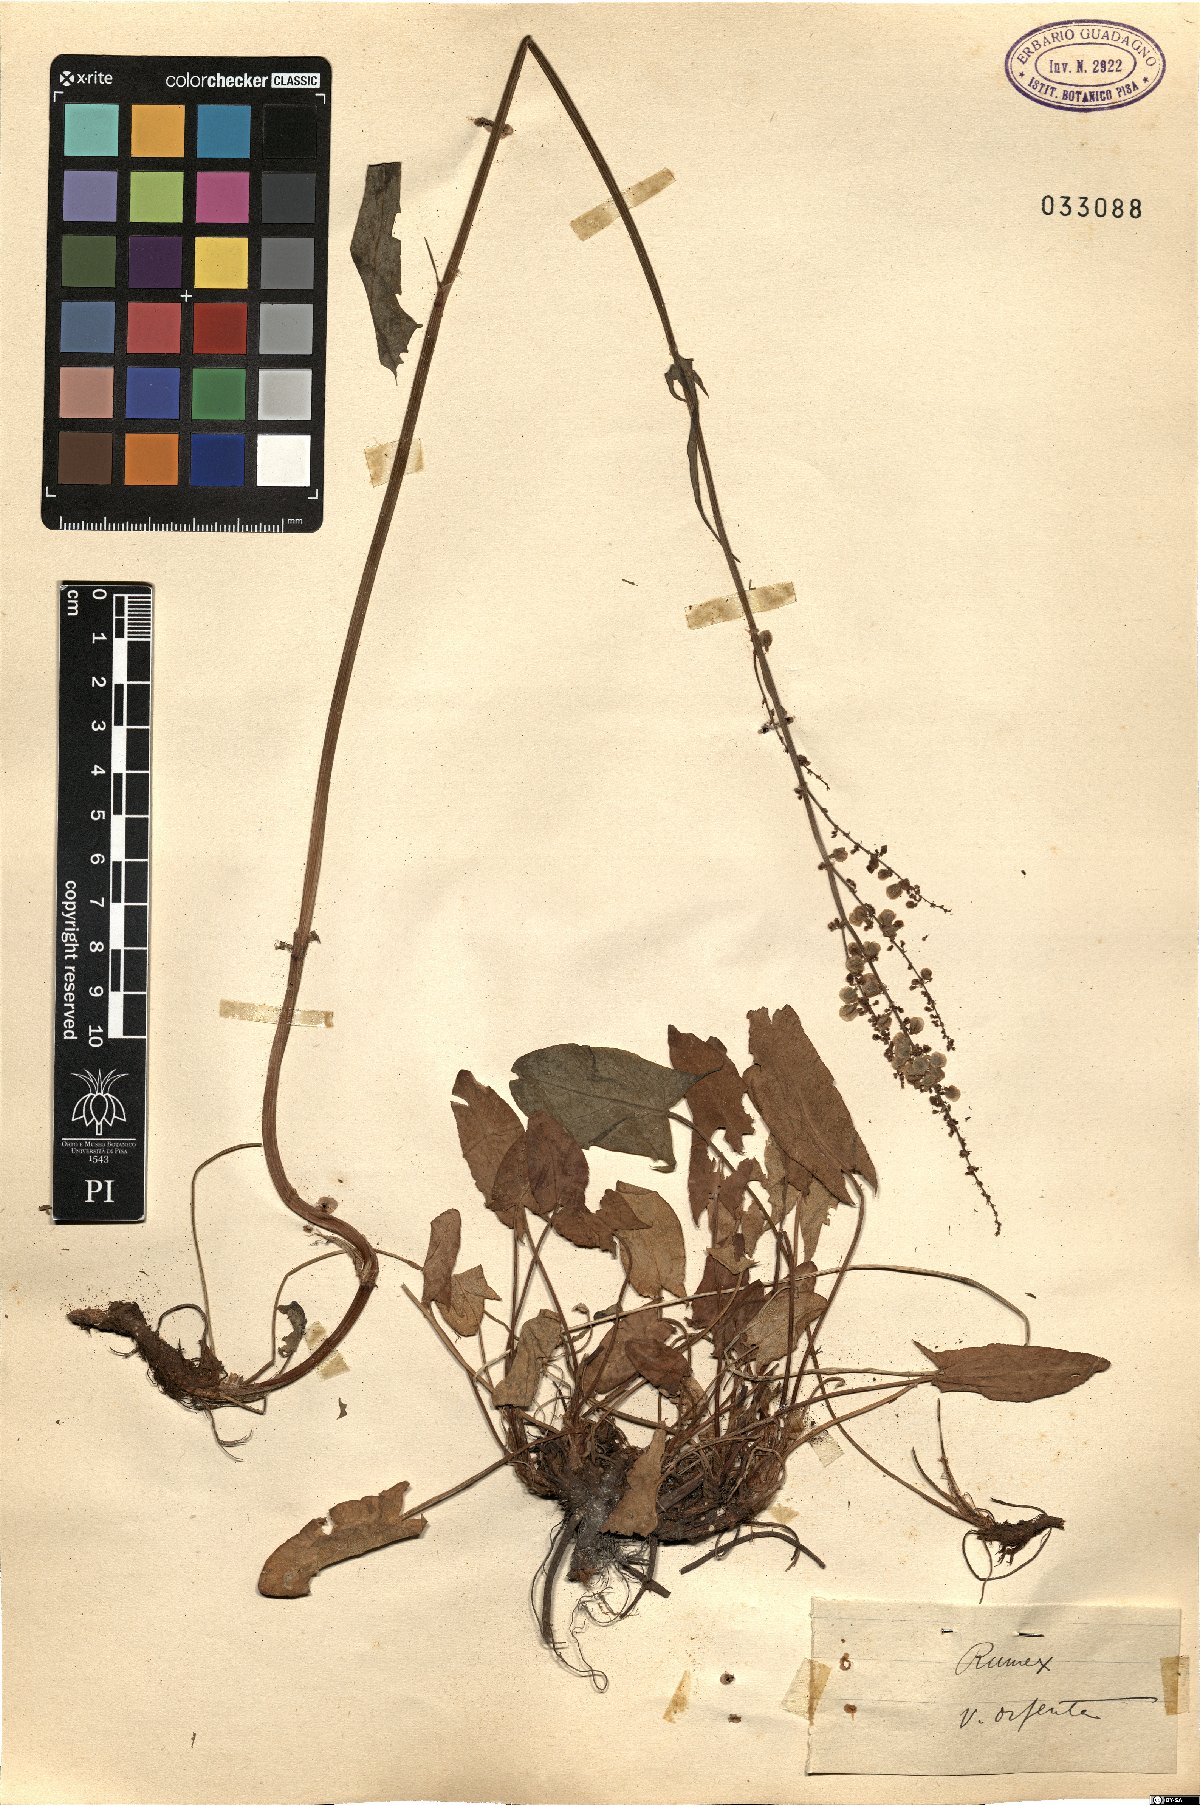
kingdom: Plantae
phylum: Tracheophyta
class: Magnoliopsida
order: Caryophyllales
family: Polygonaceae
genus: Rumex
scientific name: Rumex
